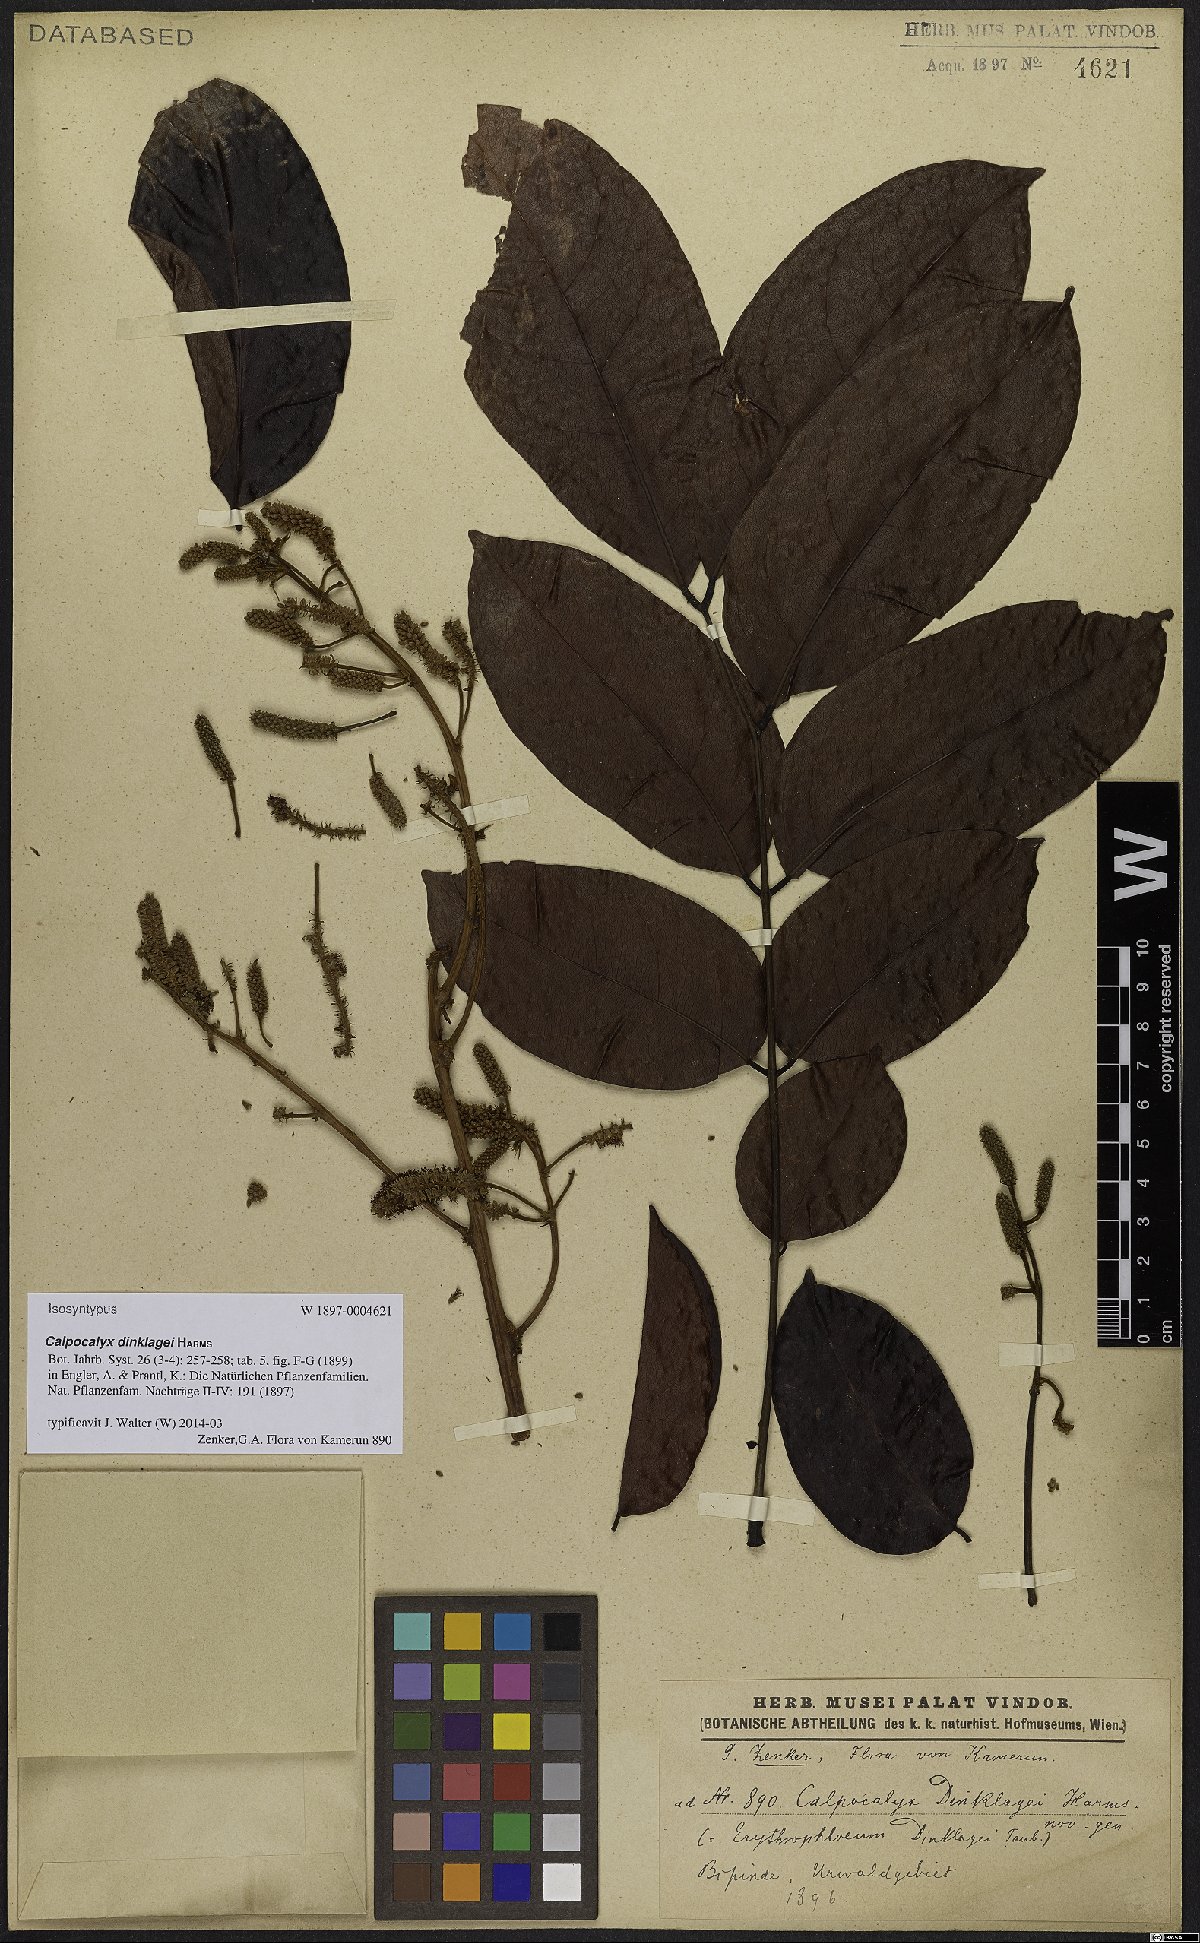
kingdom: Plantae
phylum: Tracheophyta
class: Magnoliopsida
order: Fabales
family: Fabaceae
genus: Calpocalyx
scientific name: Calpocalyx dinklagei
